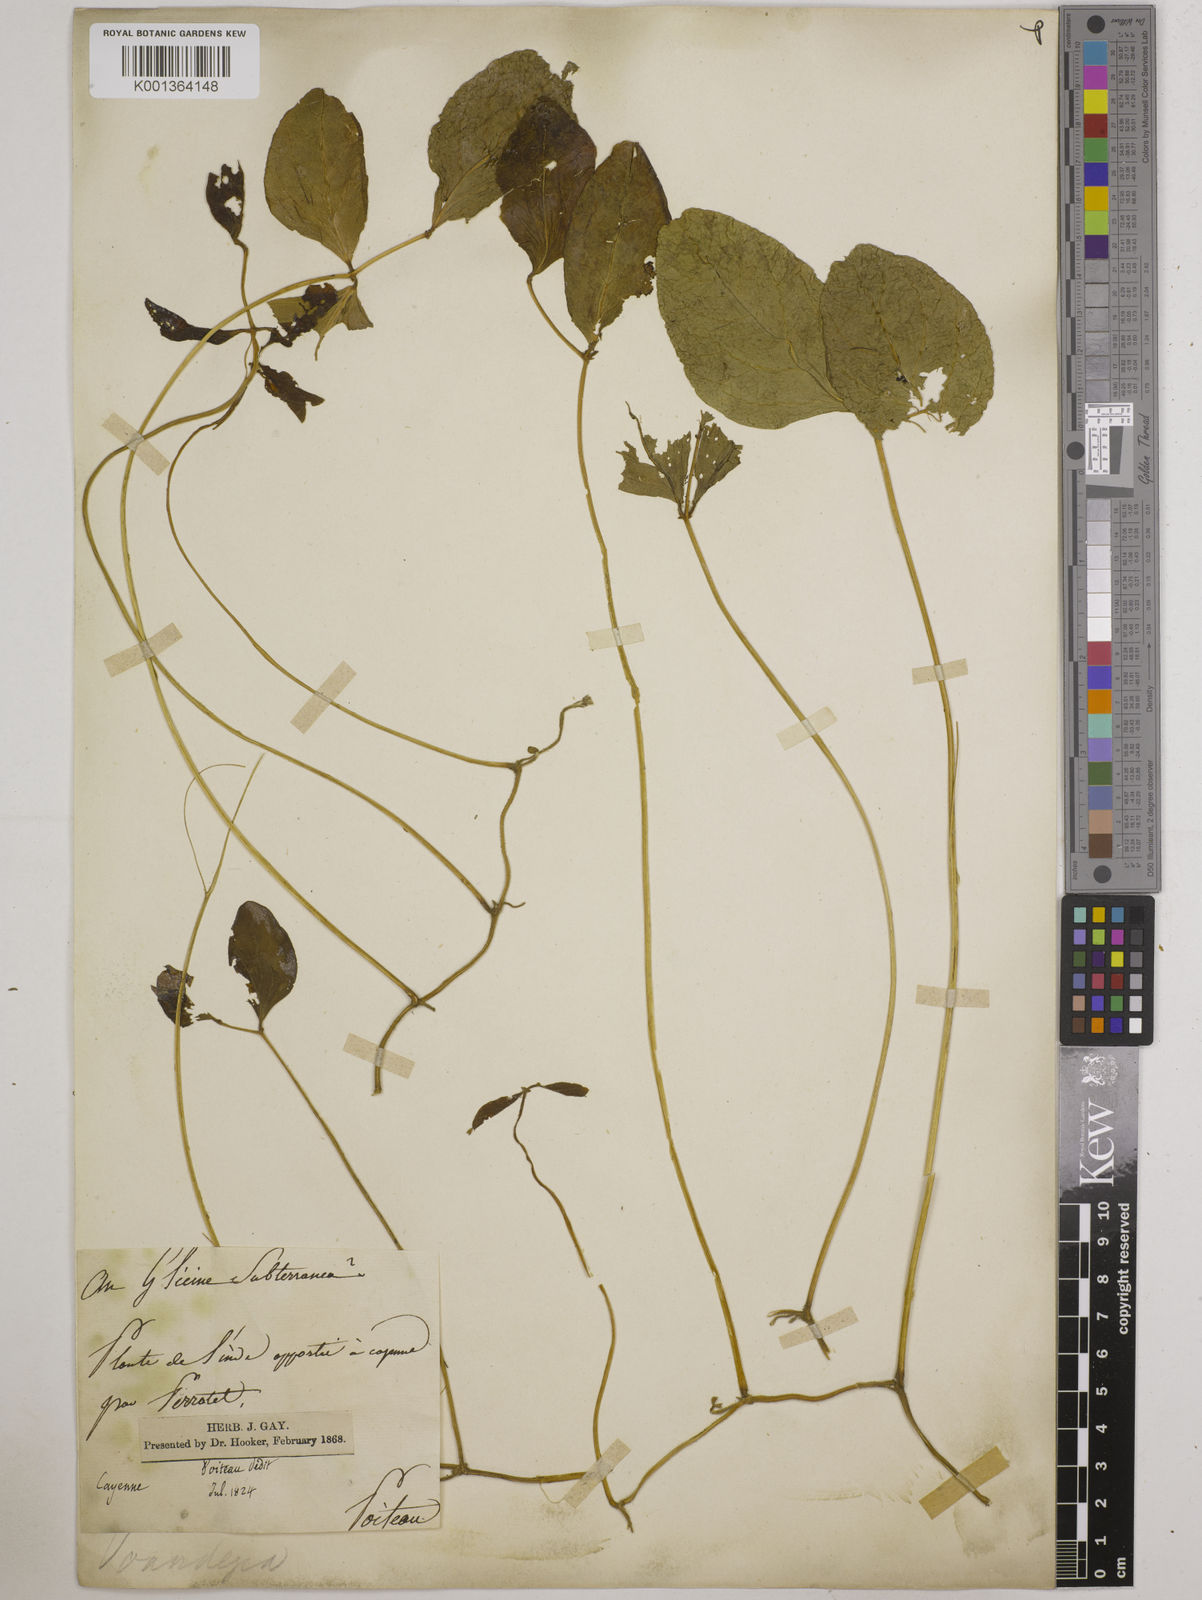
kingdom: Plantae
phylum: Tracheophyta
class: Magnoliopsida
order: Fabales
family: Fabaceae
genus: Vigna
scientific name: Vigna subterranea
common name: Bambara groundnut
